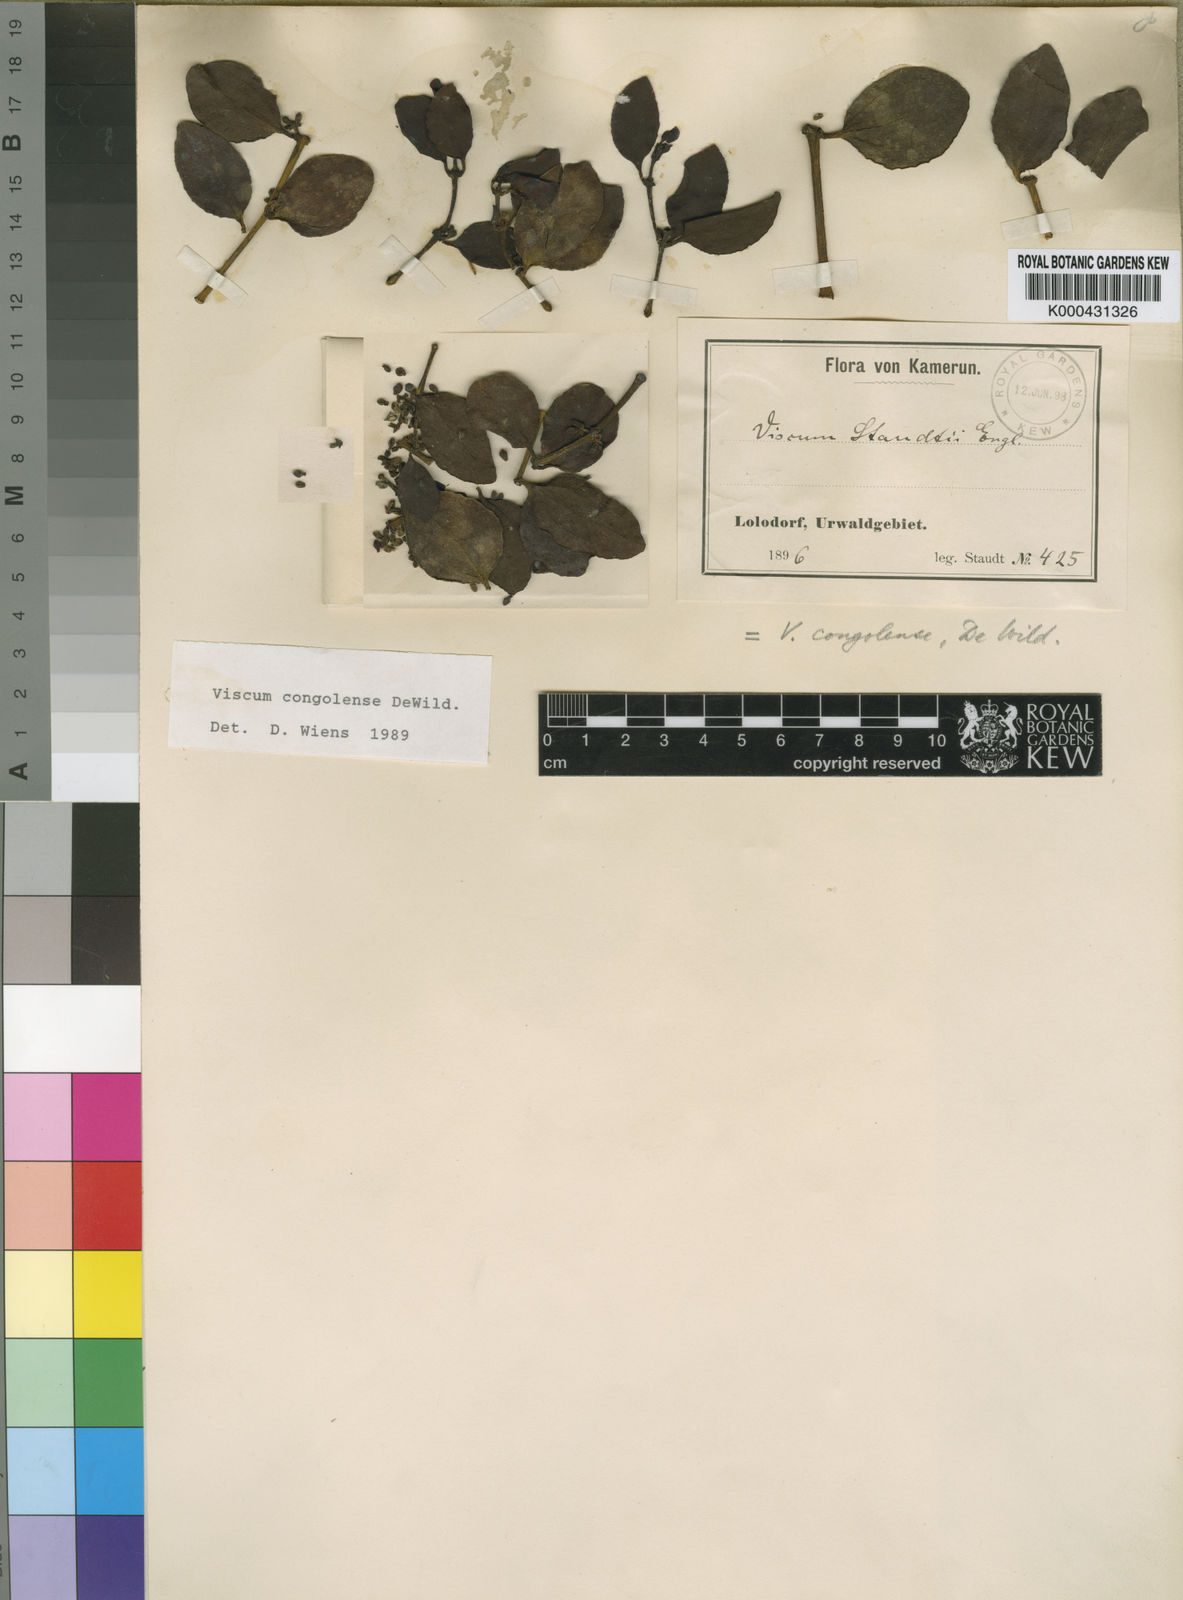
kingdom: Plantae
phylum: Tracheophyta
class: Magnoliopsida
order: Santalales
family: Viscaceae
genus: Viscum
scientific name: Viscum congolense
